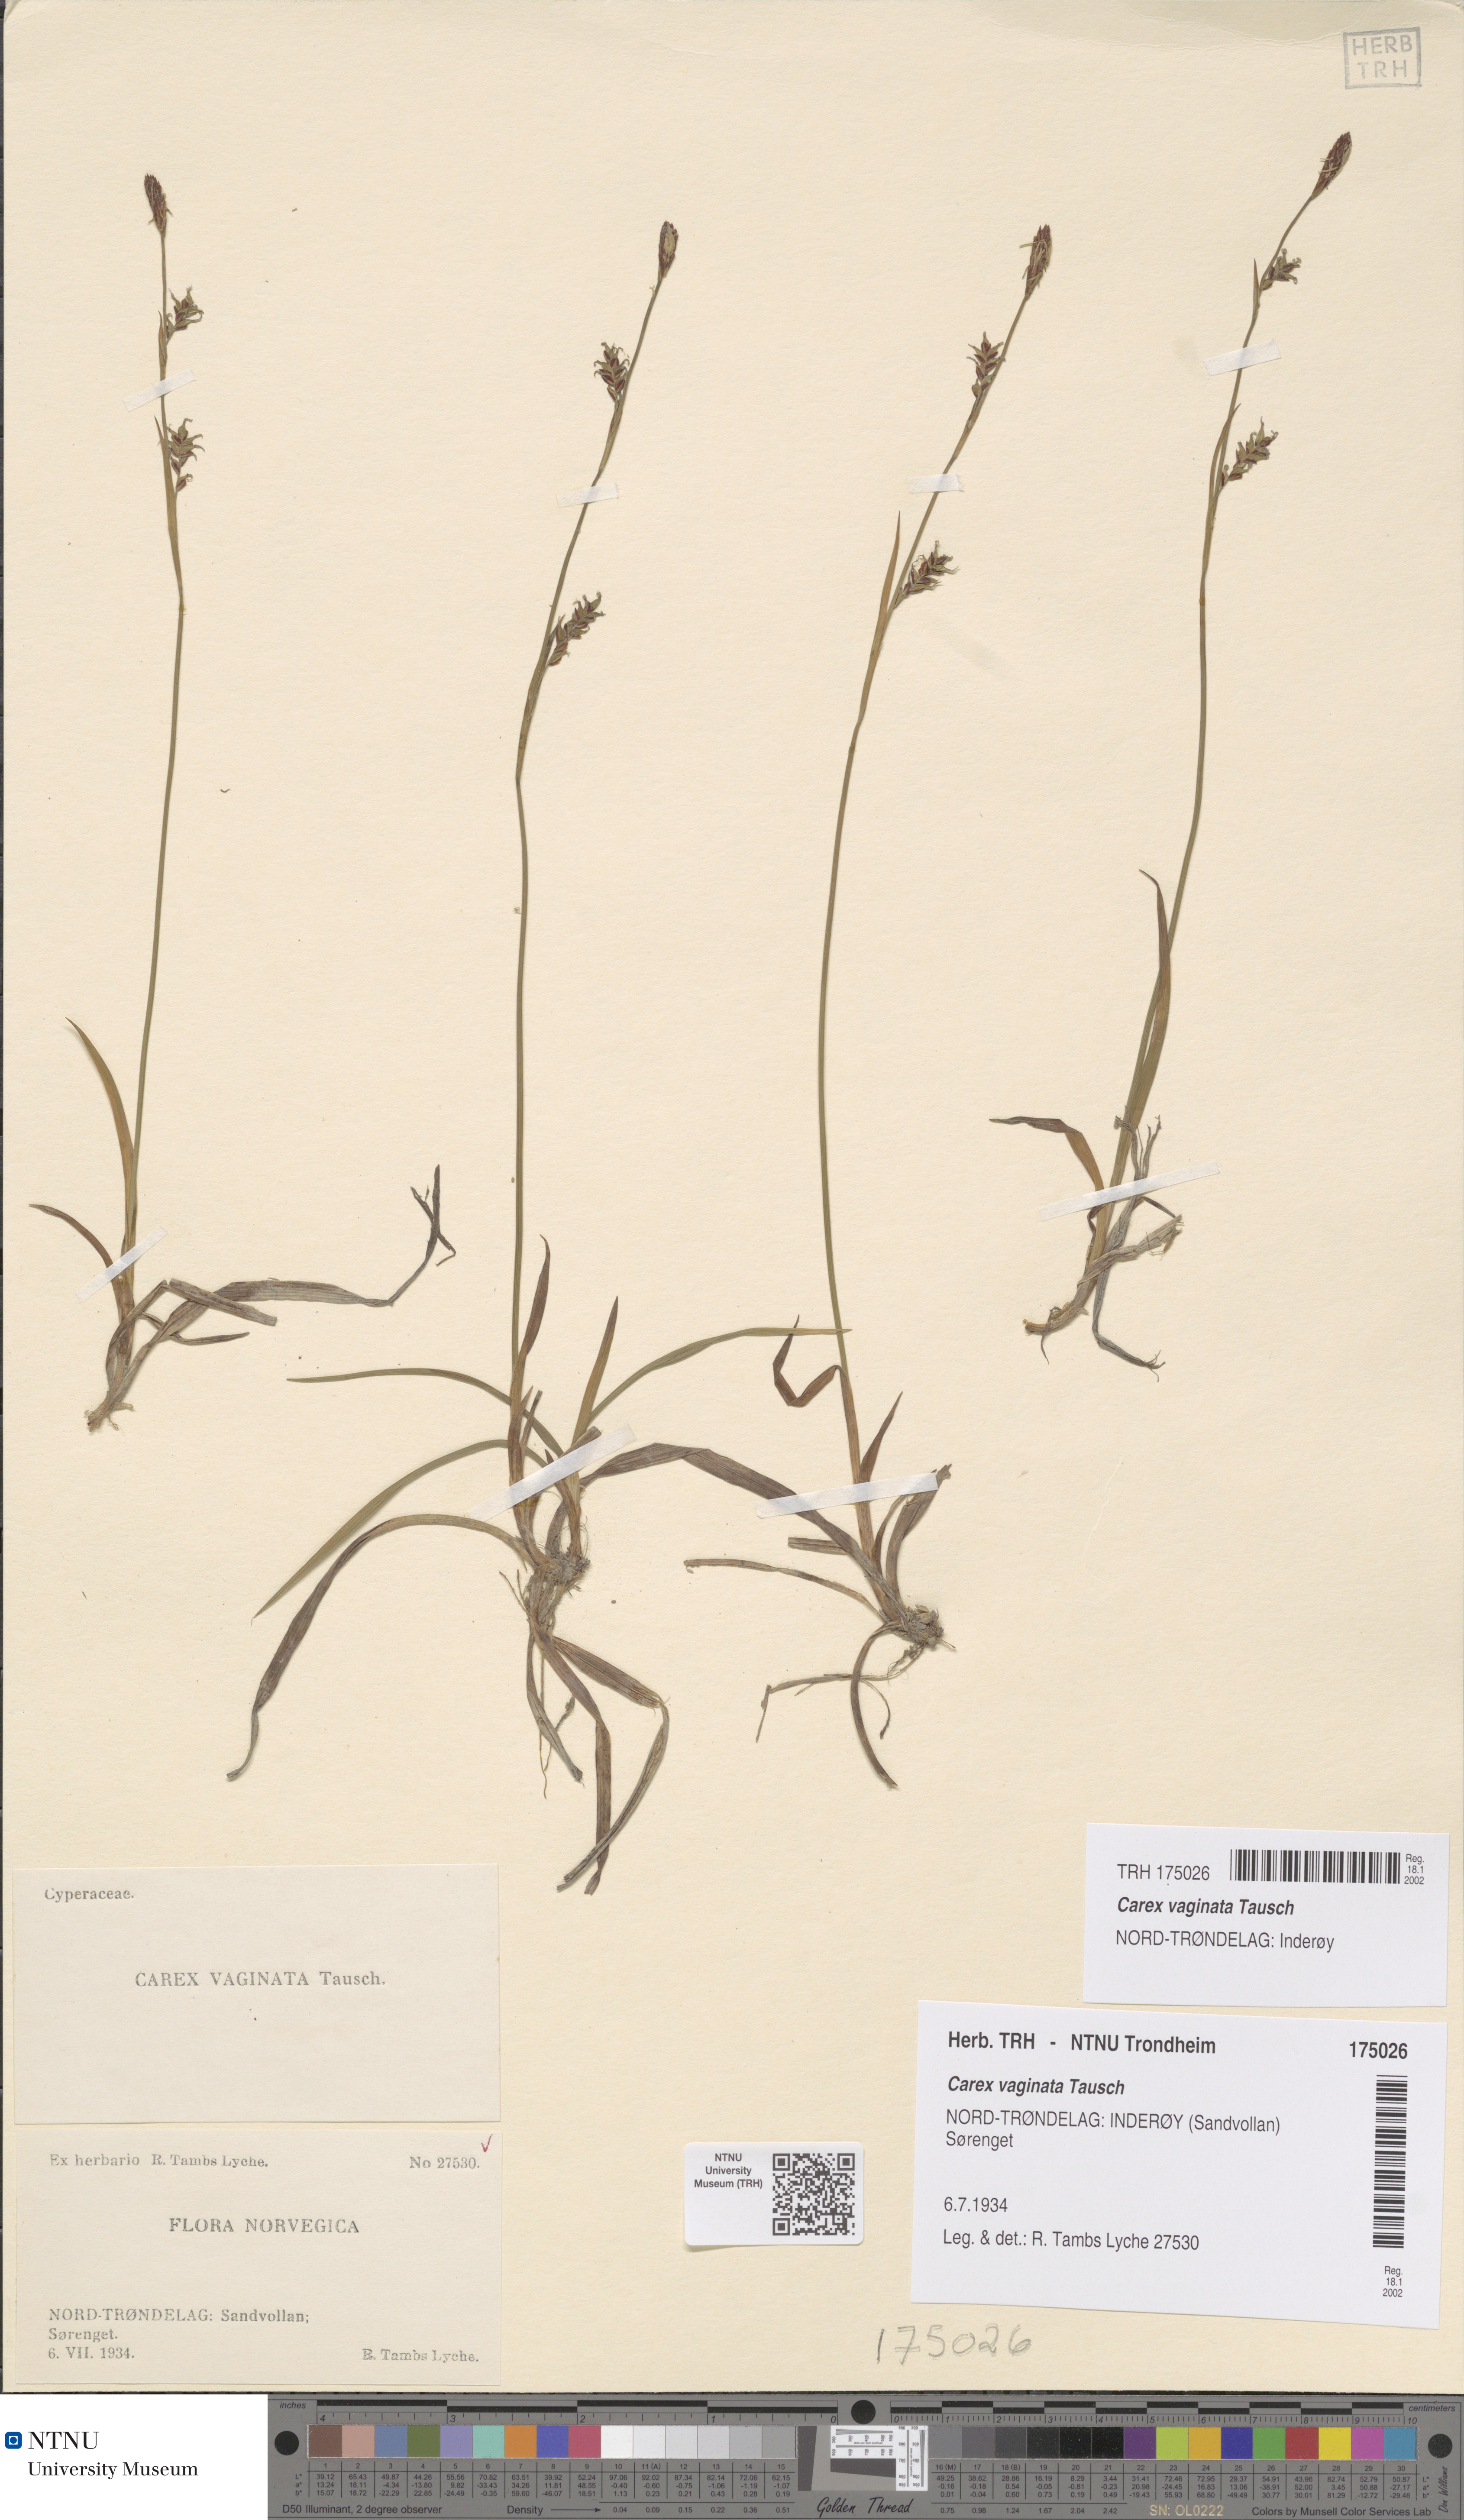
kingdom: Plantae
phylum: Tracheophyta
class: Liliopsida
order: Poales
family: Cyperaceae
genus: Carex
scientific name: Carex vaginata
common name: Sheathed sedge
